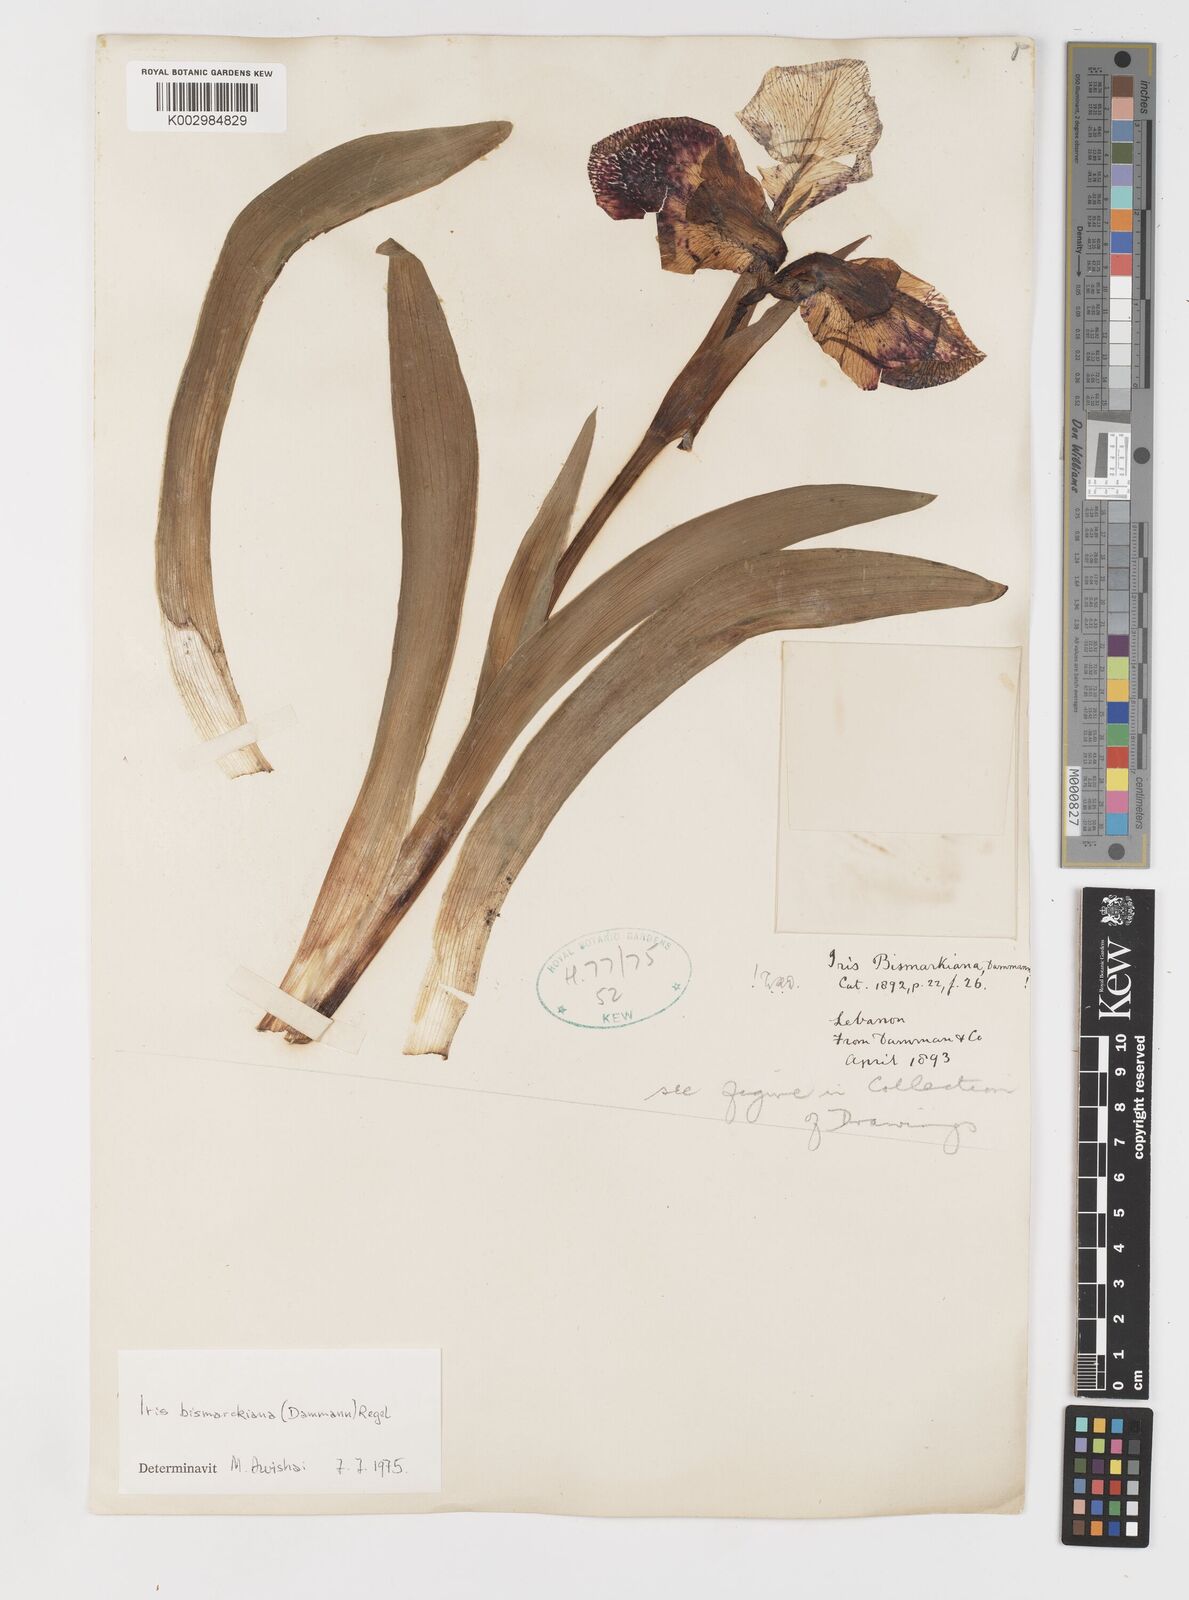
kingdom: Plantae
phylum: Tracheophyta
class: Liliopsida
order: Asparagales
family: Iridaceae
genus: Iris
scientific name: Iris bismarckiana
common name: Nazareth iris
